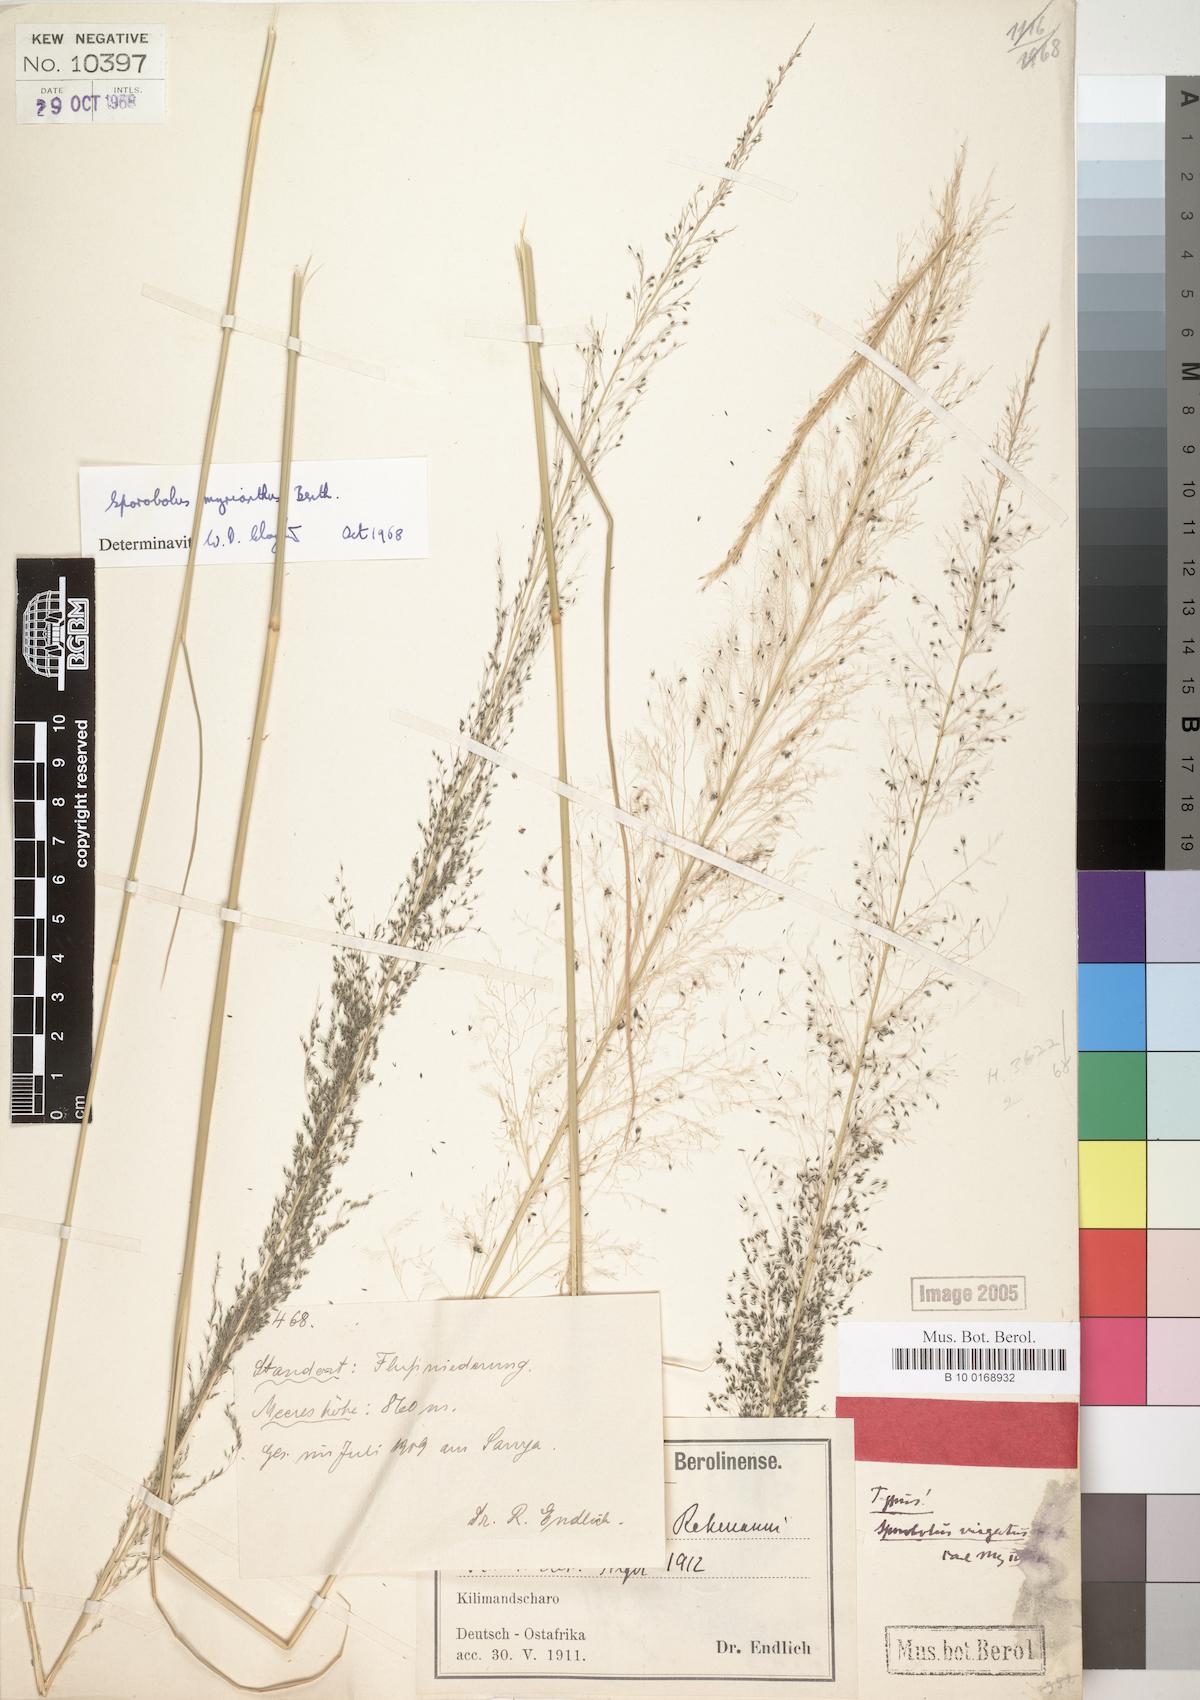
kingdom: Plantae
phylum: Tracheophyta
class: Liliopsida
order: Poales
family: Poaceae
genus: Sporobolus
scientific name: Sporobolus myrianthus
